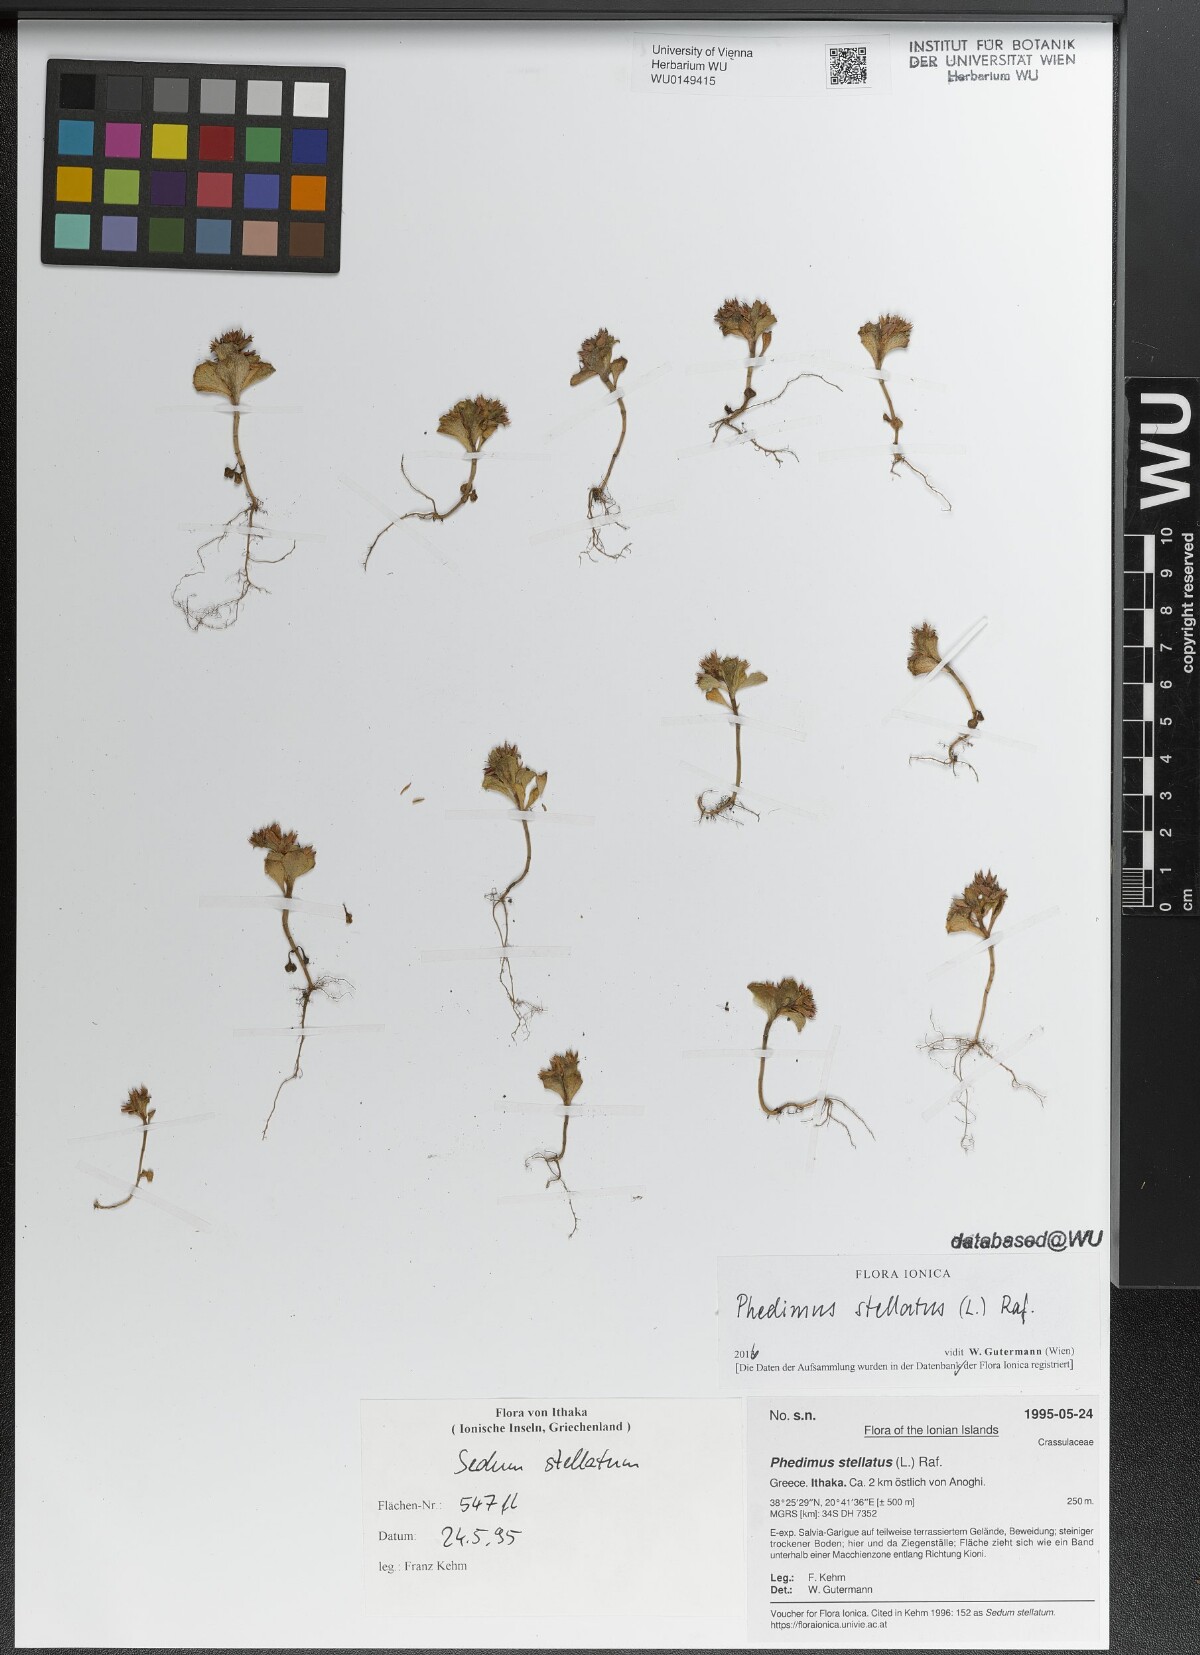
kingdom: Plantae
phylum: Tracheophyta
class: Magnoliopsida
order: Saxifragales
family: Crassulaceae
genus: Phedimus
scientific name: Phedimus stellatus
